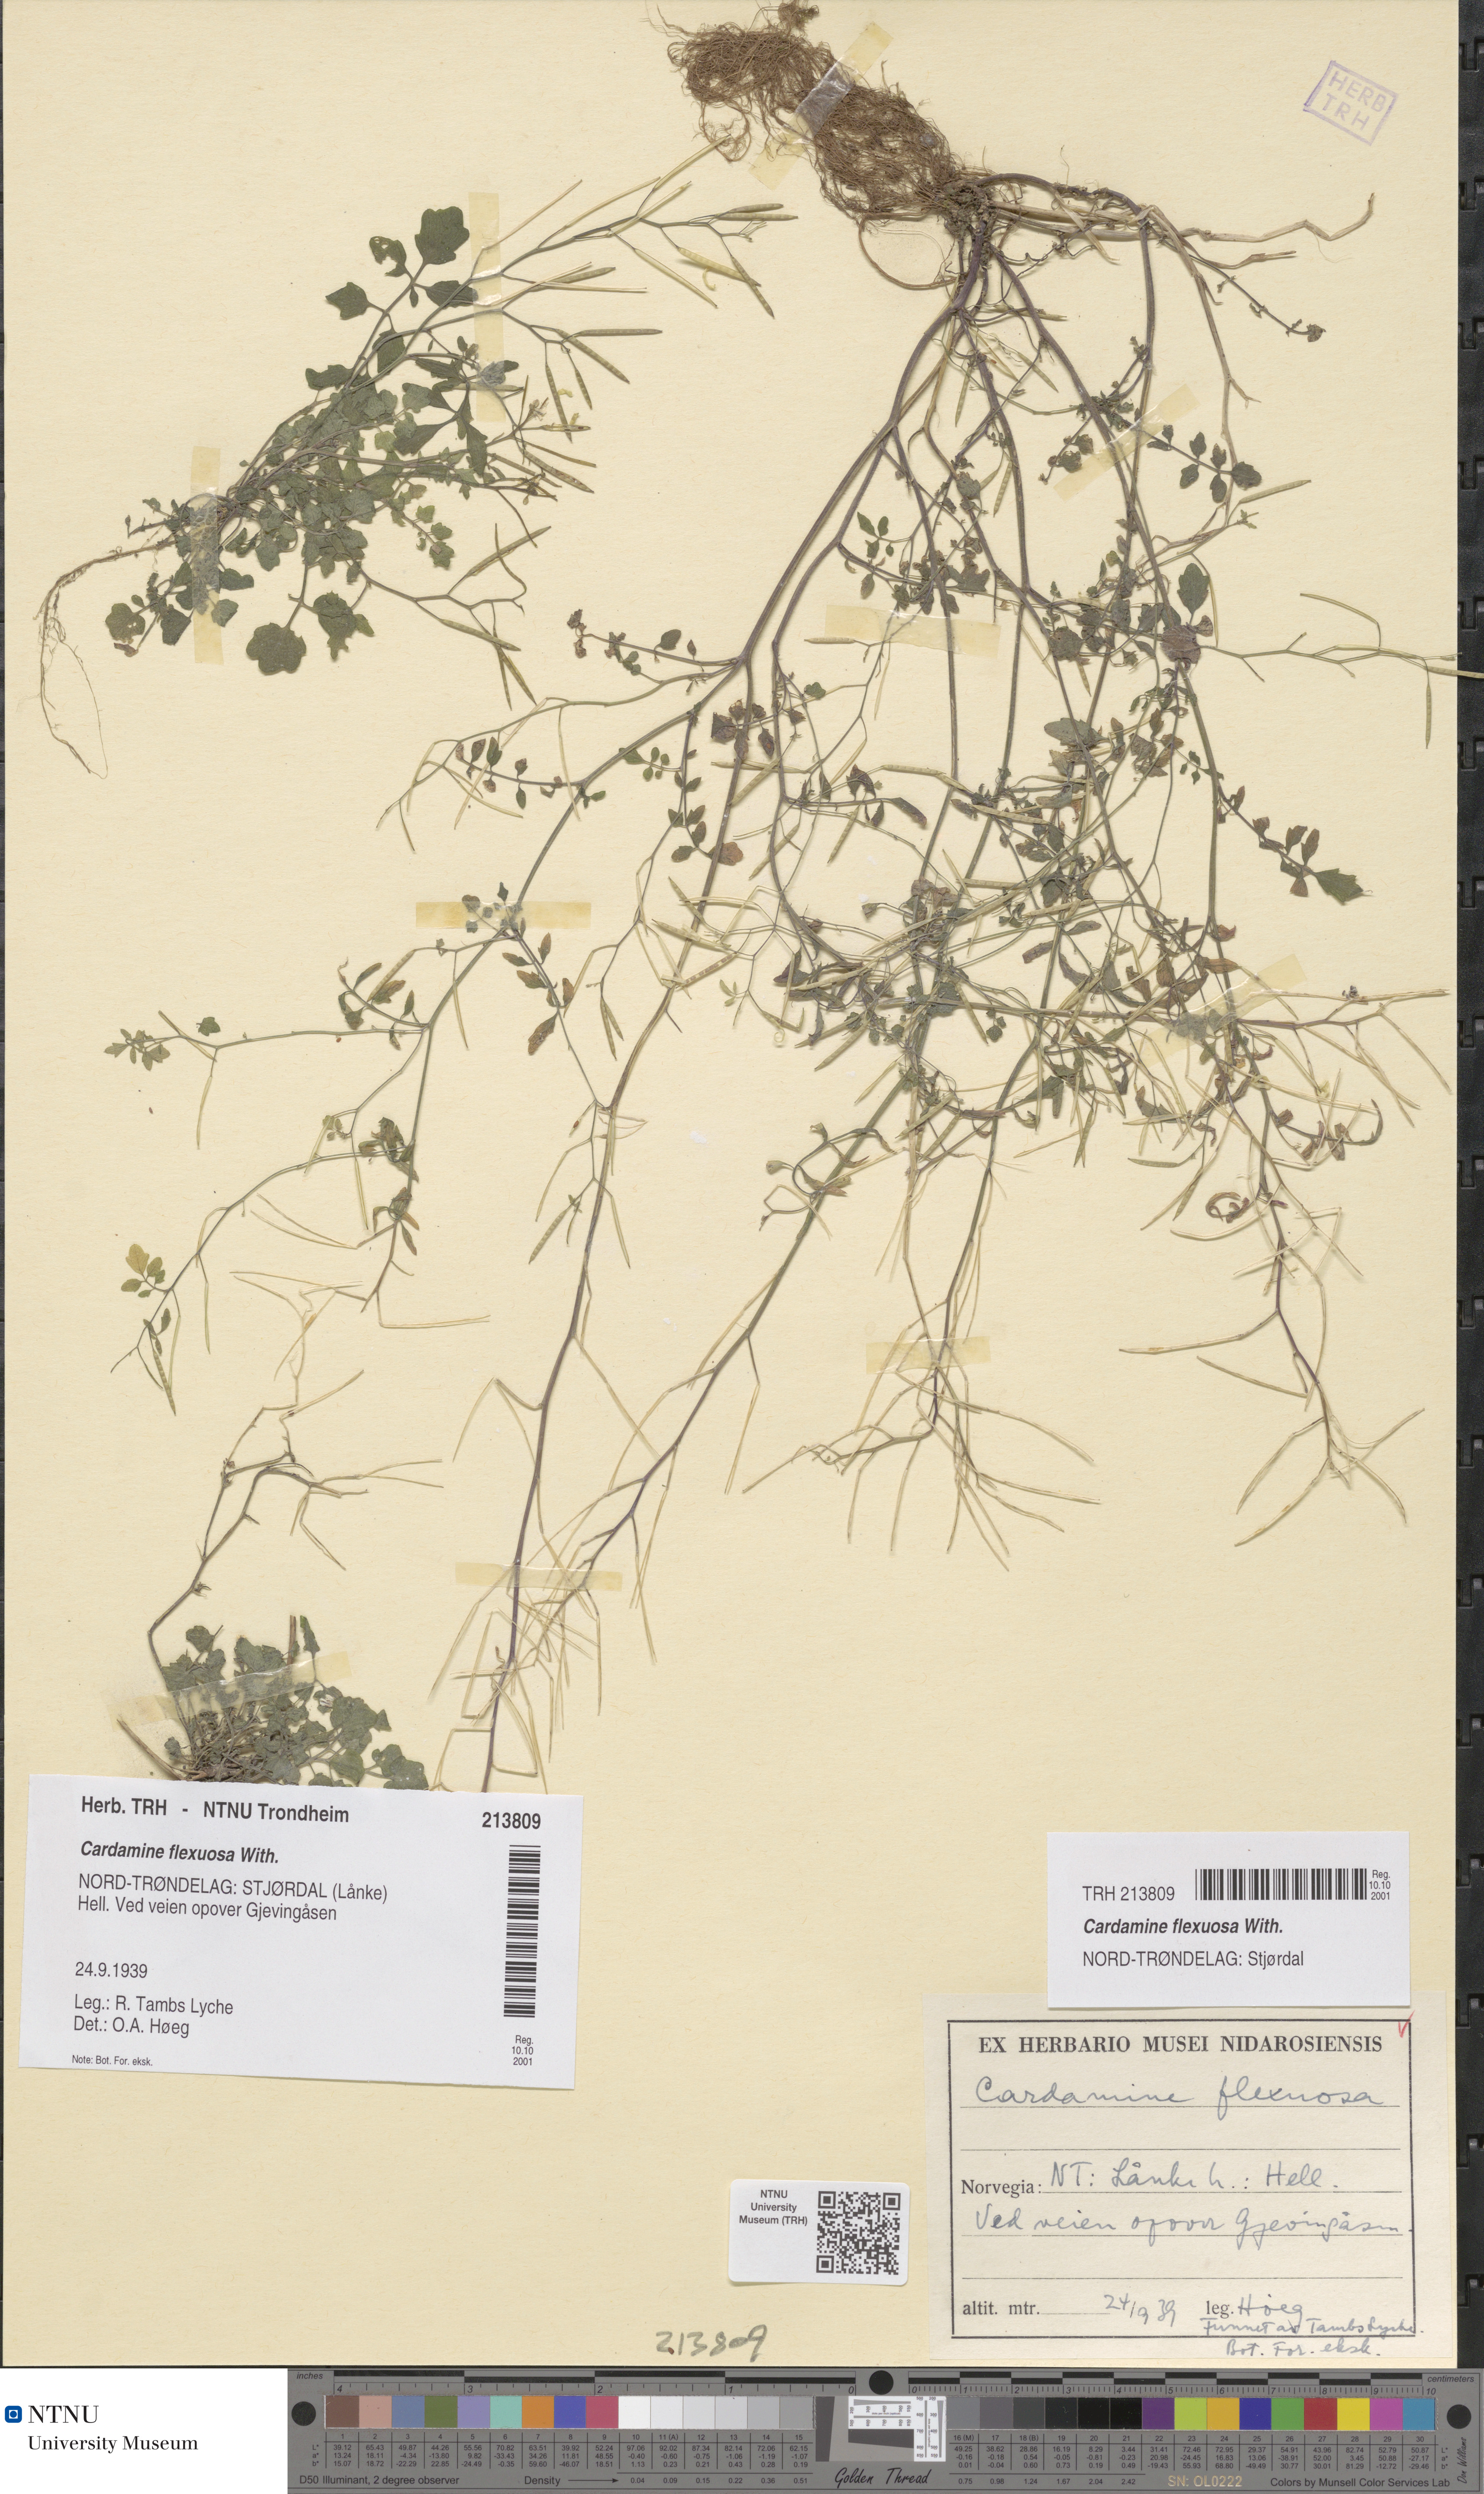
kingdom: Plantae
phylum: Tracheophyta
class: Magnoliopsida
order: Brassicales
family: Brassicaceae
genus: Cardamine
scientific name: Cardamine flexuosa
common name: Woodland bittercress
